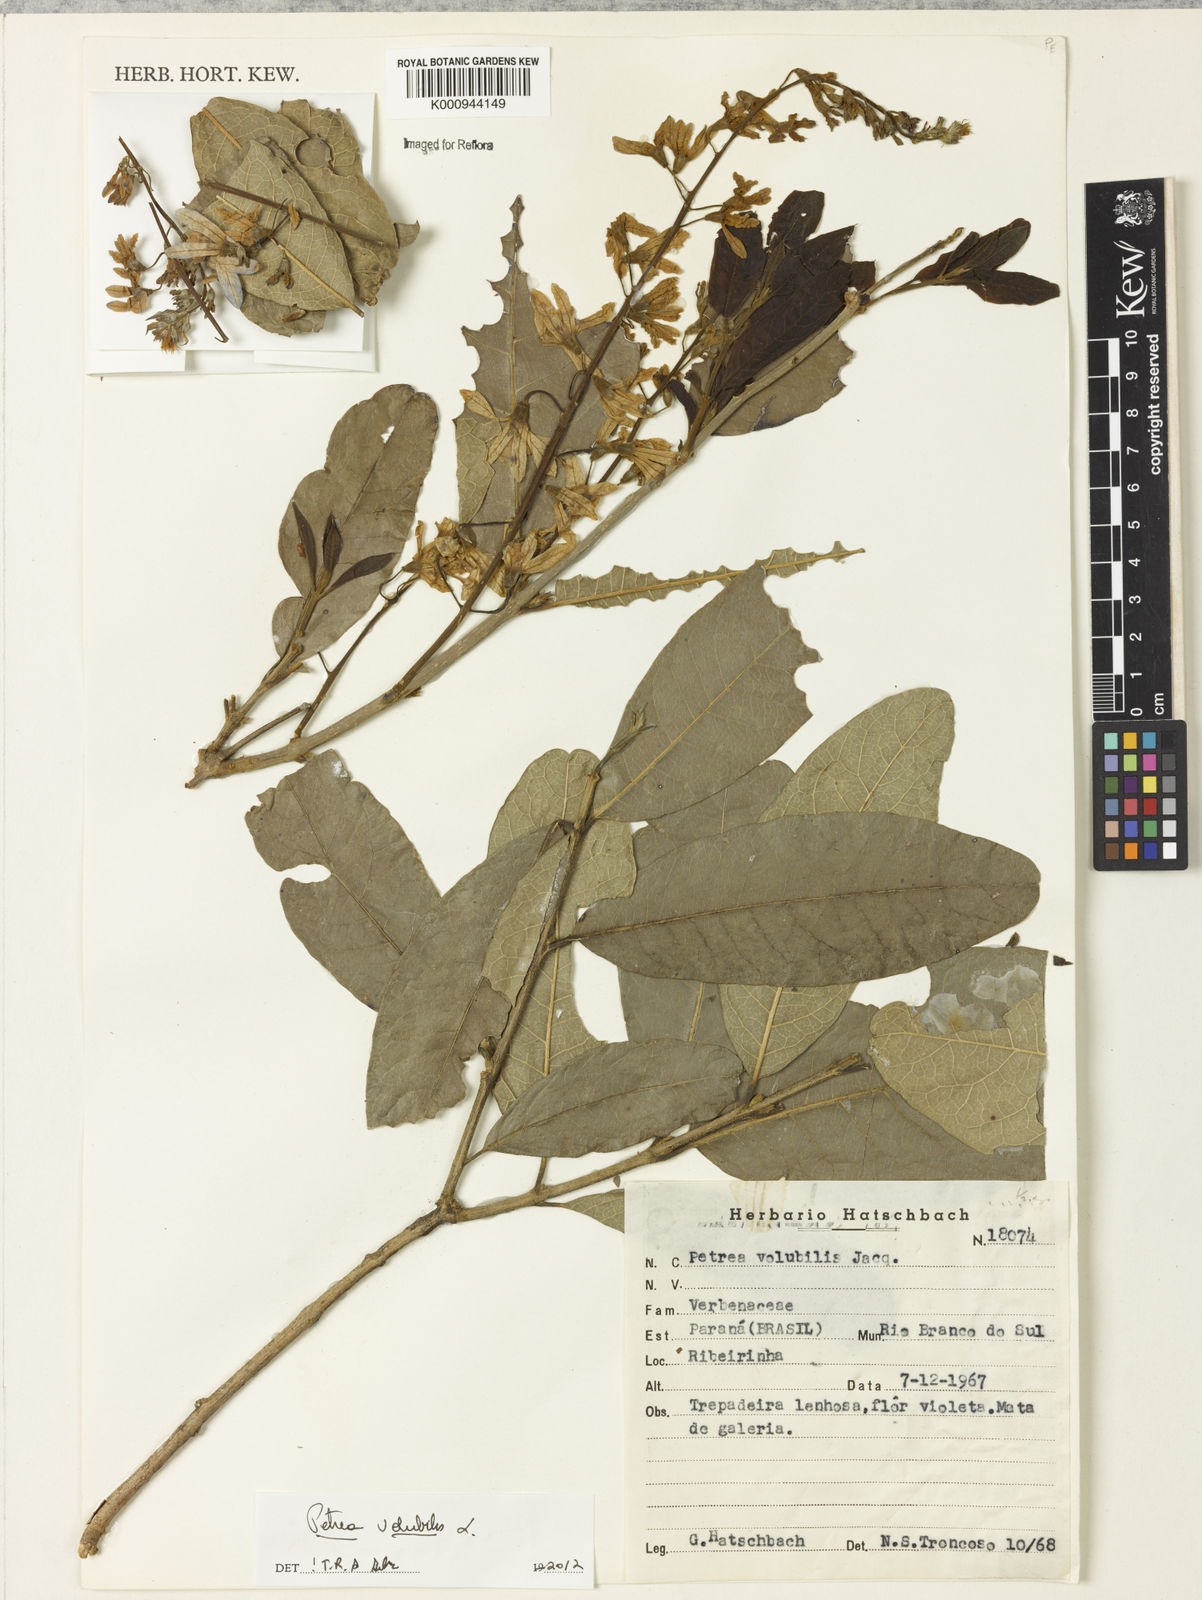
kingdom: Plantae
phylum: Tracheophyta
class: Magnoliopsida
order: Lamiales
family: Verbenaceae
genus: Petrea
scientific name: Petrea
